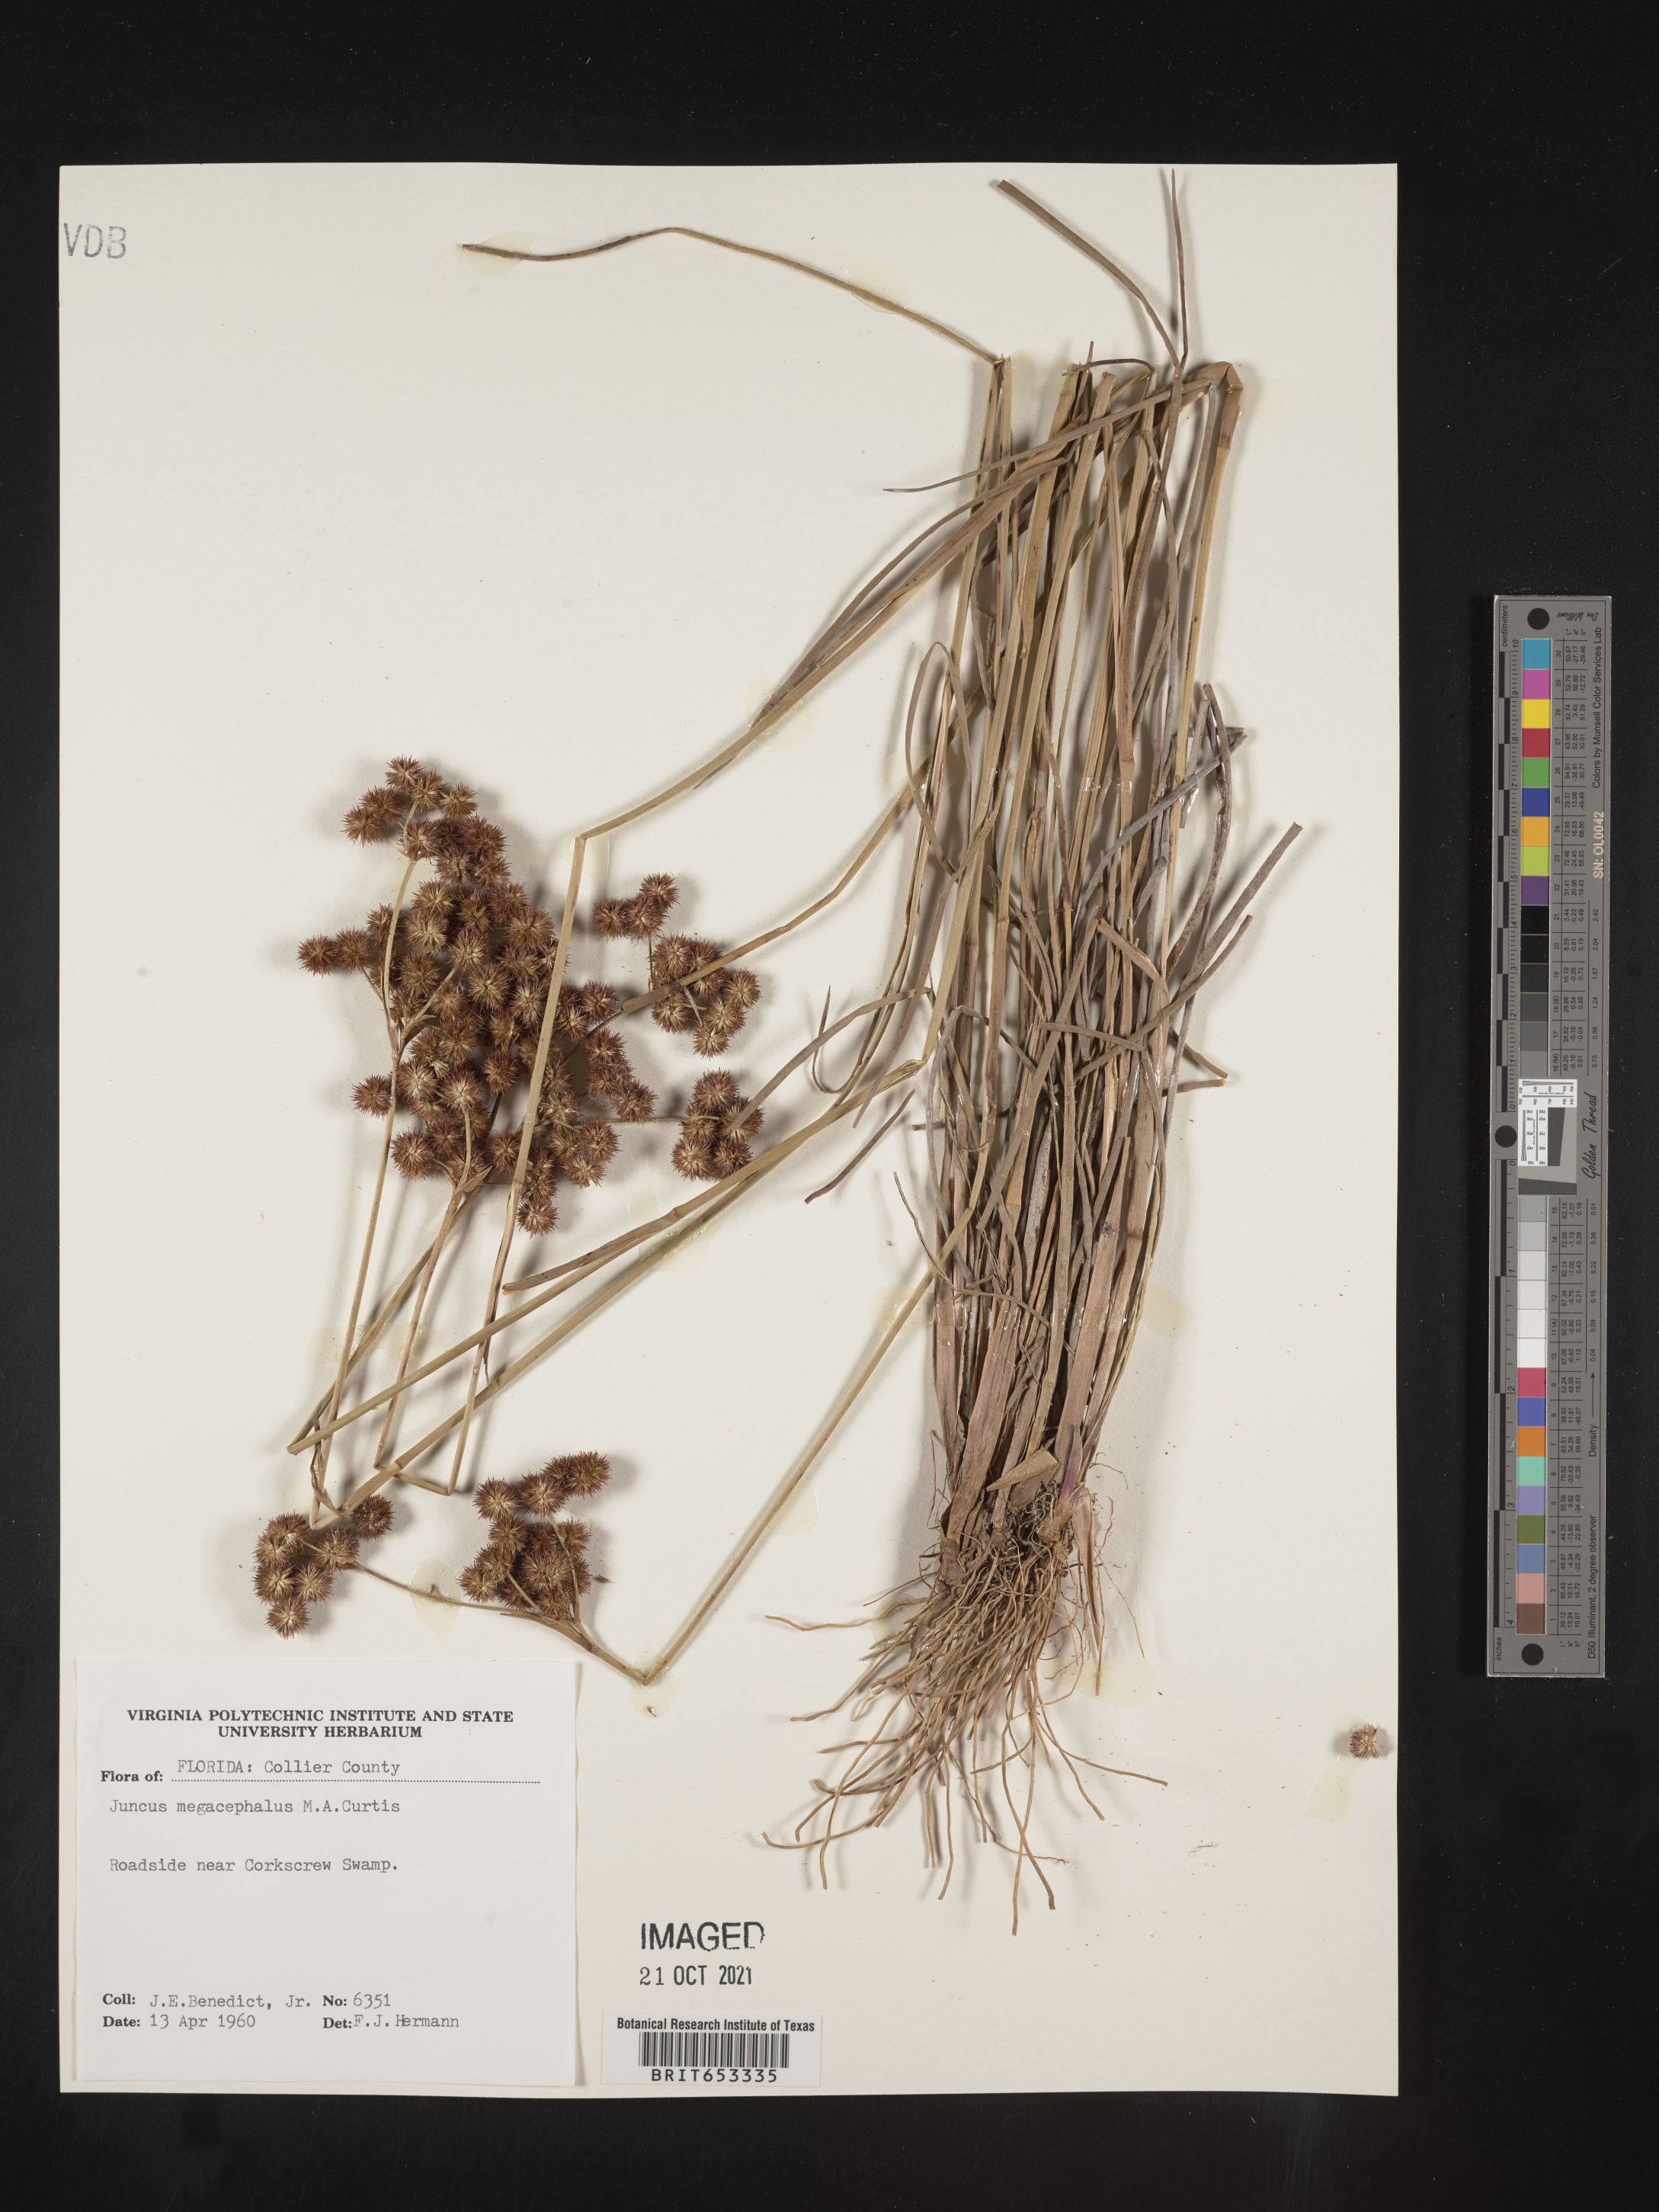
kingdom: Plantae
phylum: Tracheophyta
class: Liliopsida
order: Poales
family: Juncaceae
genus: Juncus
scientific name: Juncus megacephalus
